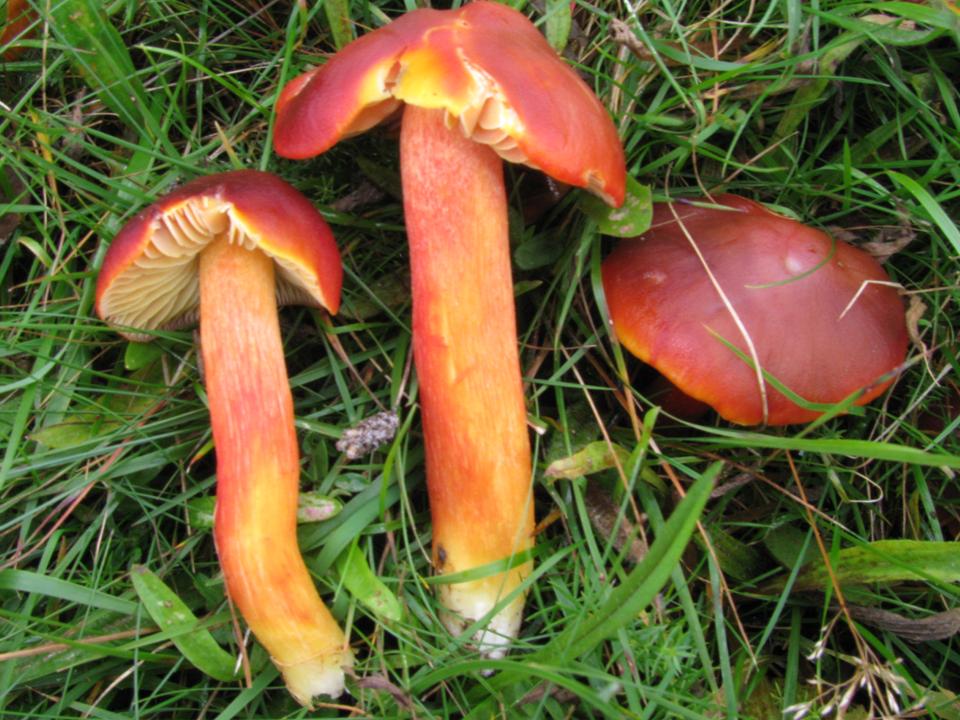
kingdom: Fungi
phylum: Basidiomycota
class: Agaricomycetes
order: Agaricales
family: Hygrophoraceae
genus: Hygrocybe
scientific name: Hygrocybe punicea
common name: skarlagen-vokshat
